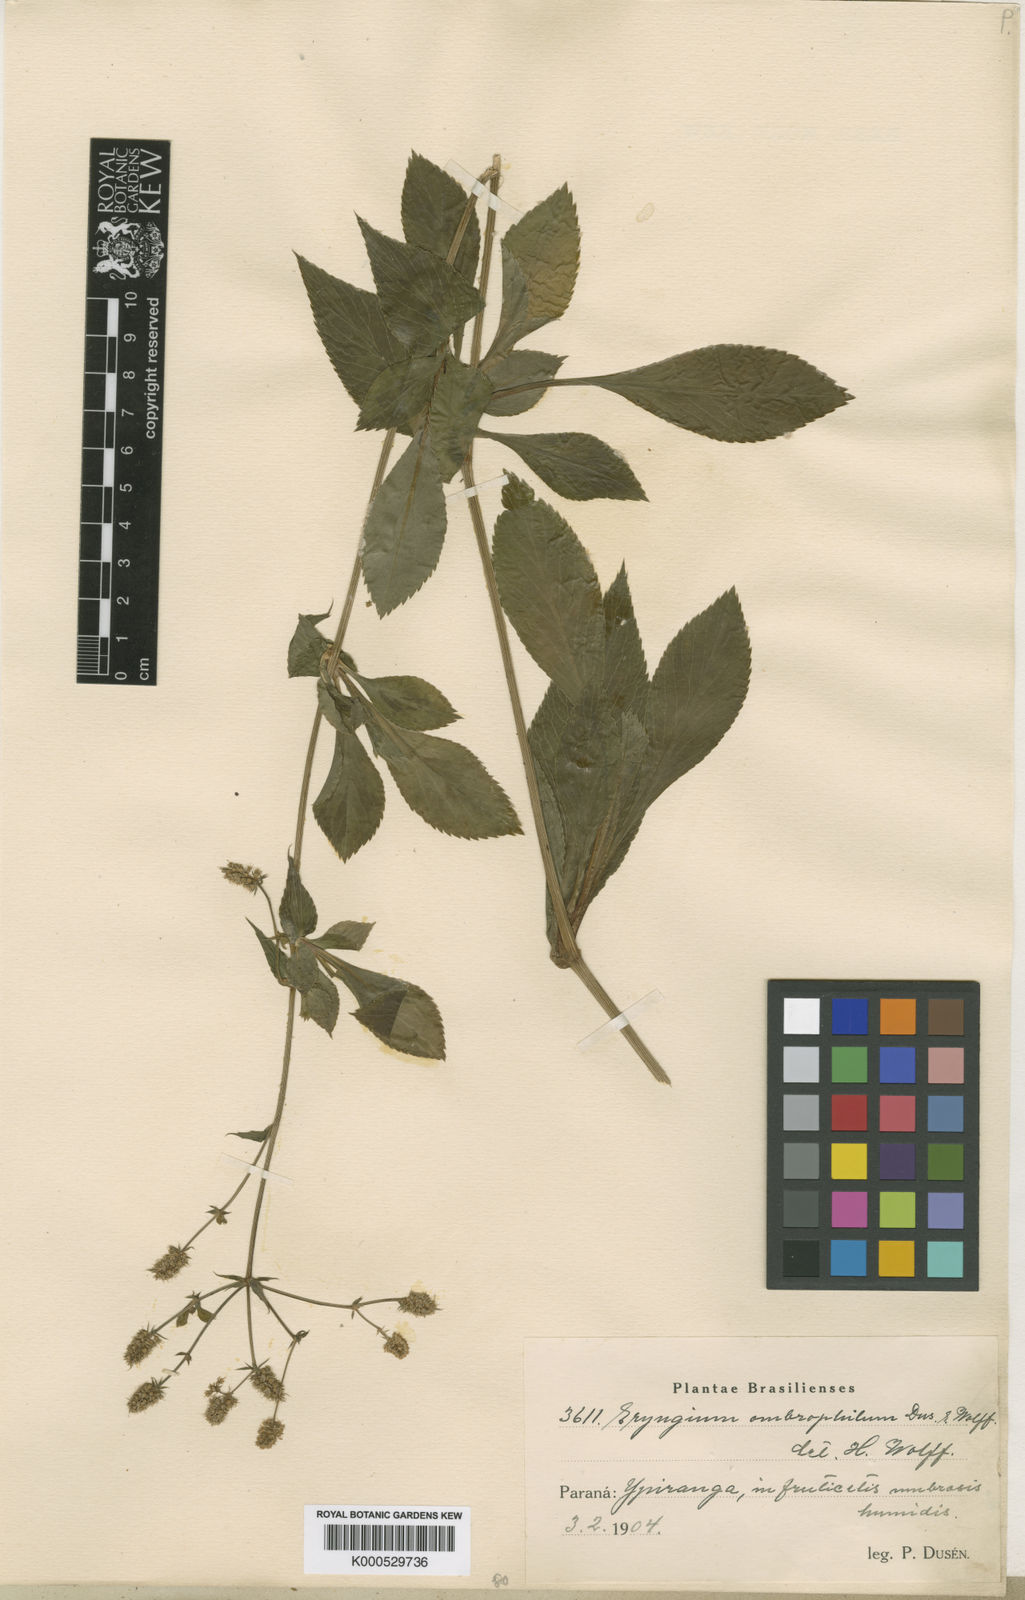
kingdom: Plantae
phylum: Tracheophyta
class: Magnoliopsida
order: Apiales
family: Apiaceae
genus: Eryngium
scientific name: Eryngium
